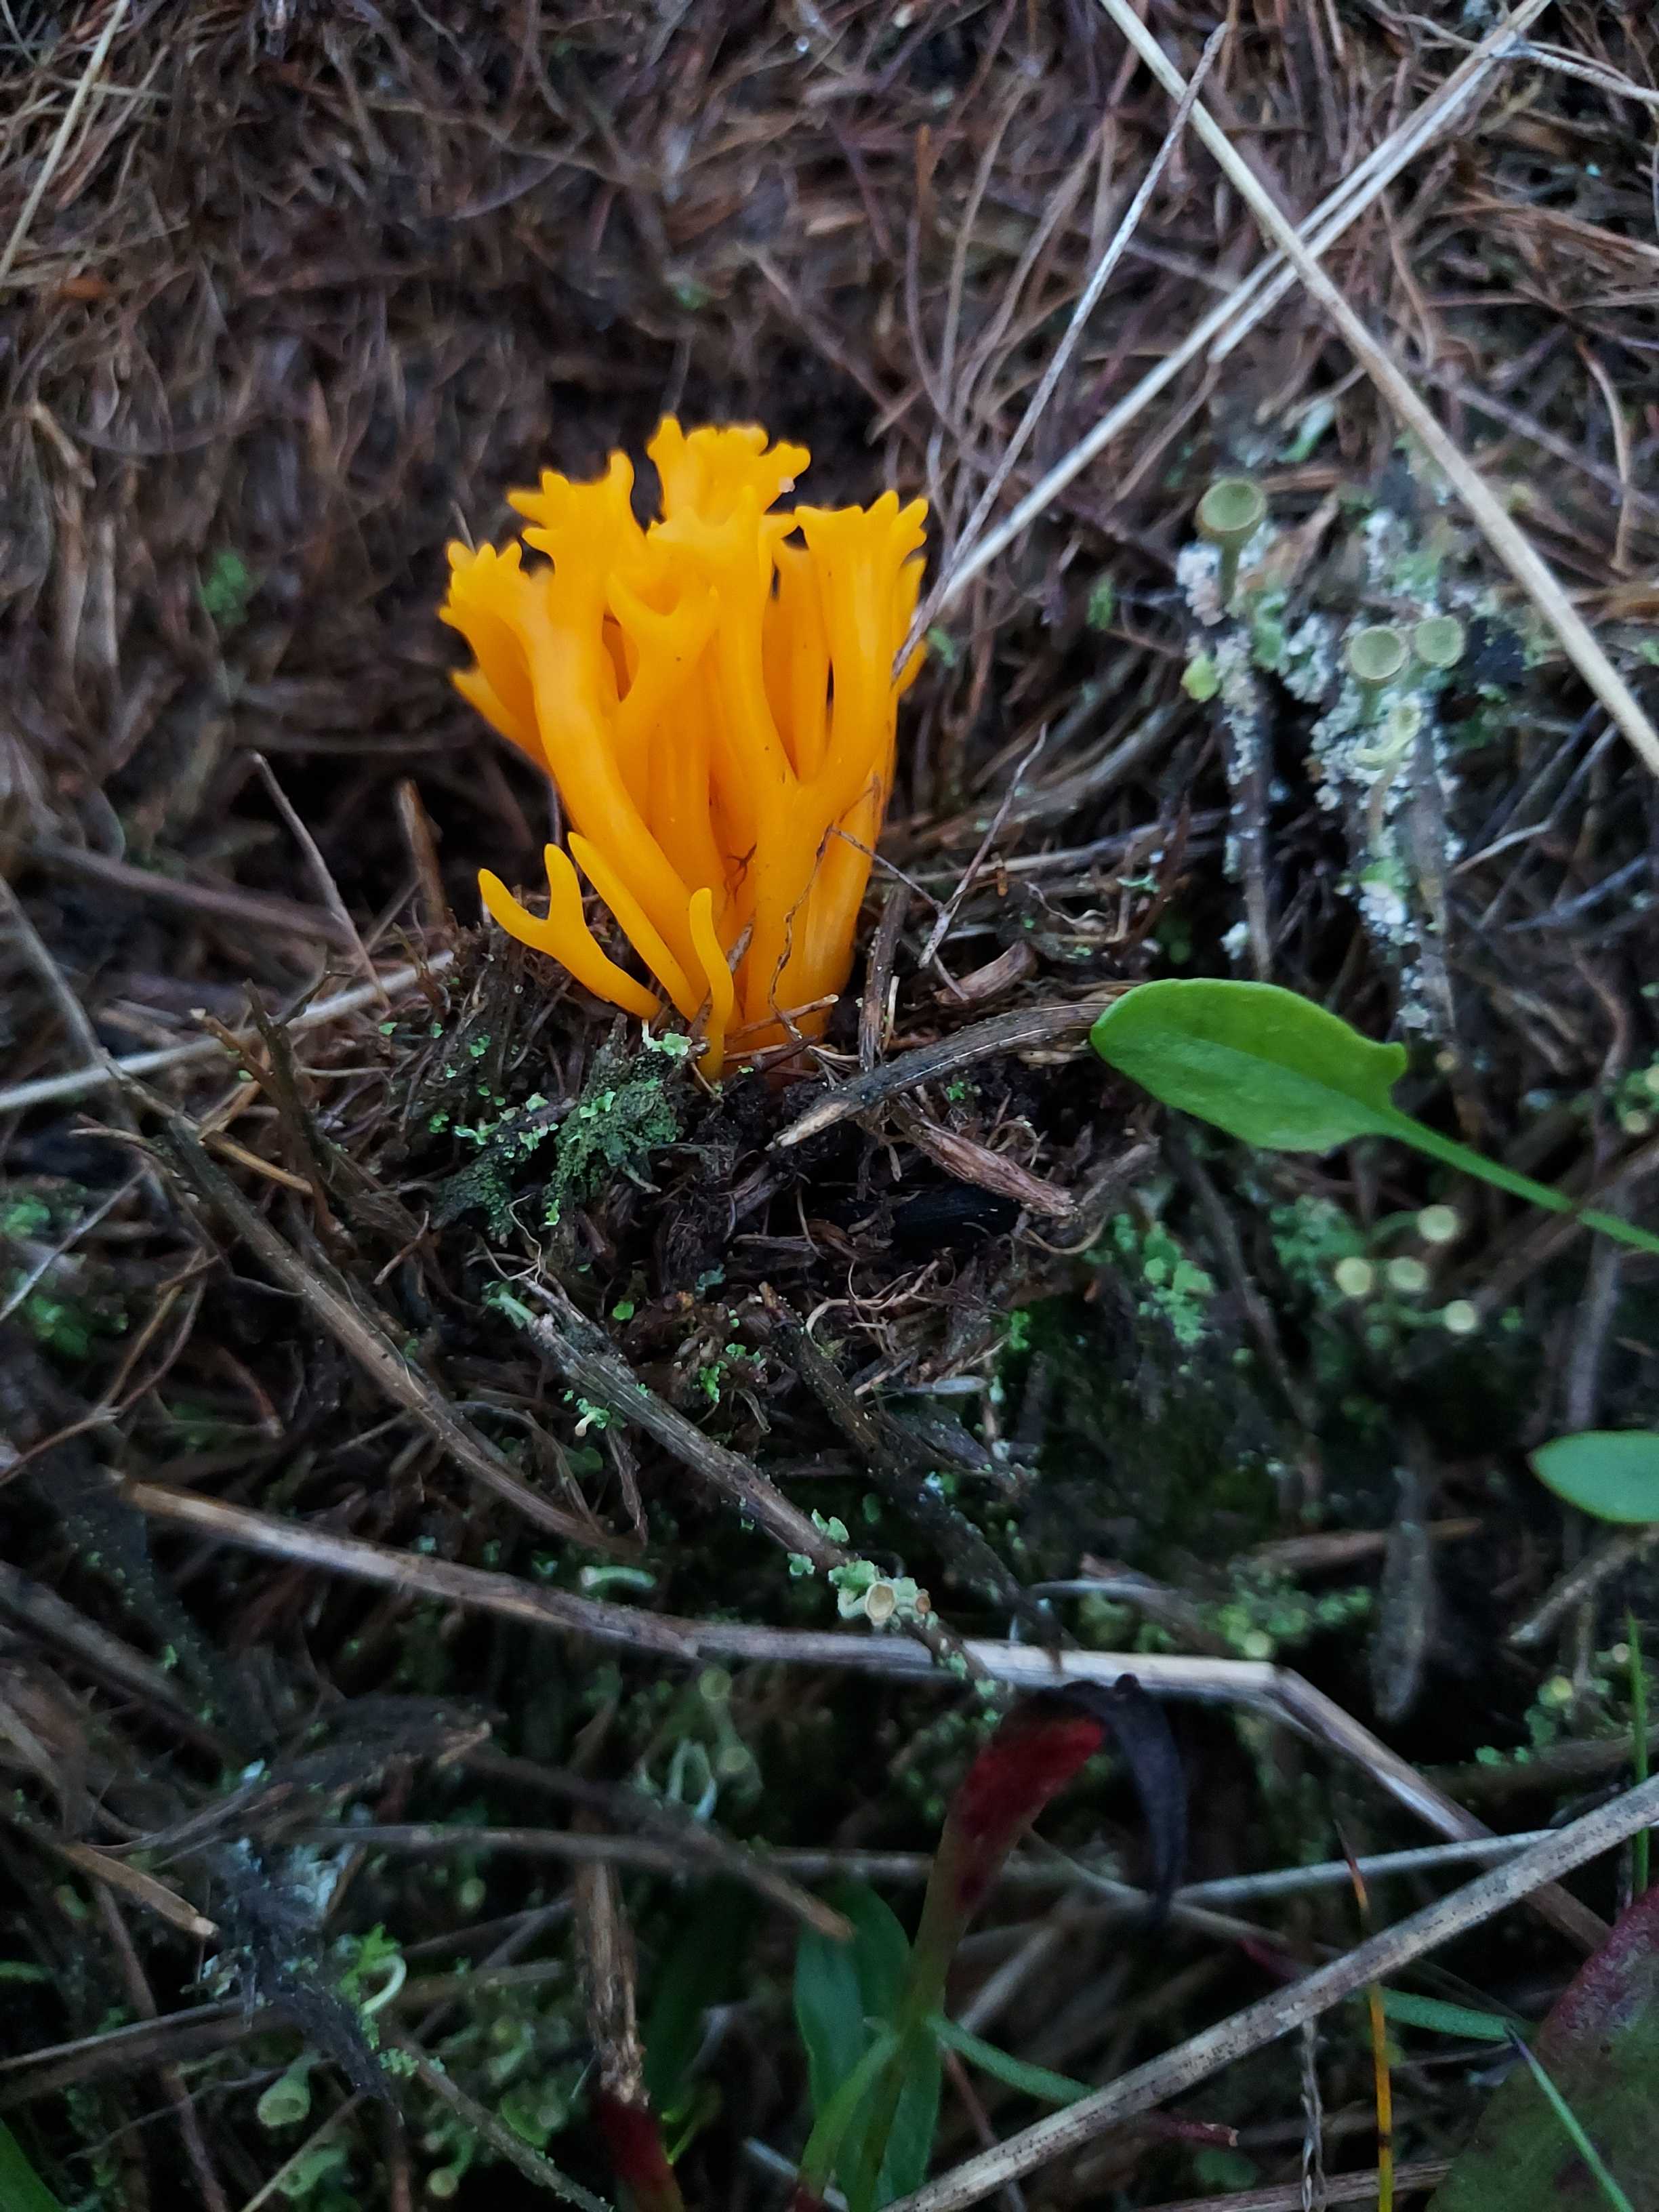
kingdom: Fungi
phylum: Basidiomycota
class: Agaricomycetes
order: Agaricales
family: Clavariaceae
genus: Clavulinopsis
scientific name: Clavulinopsis corniculata
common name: eng-køllesvamp
